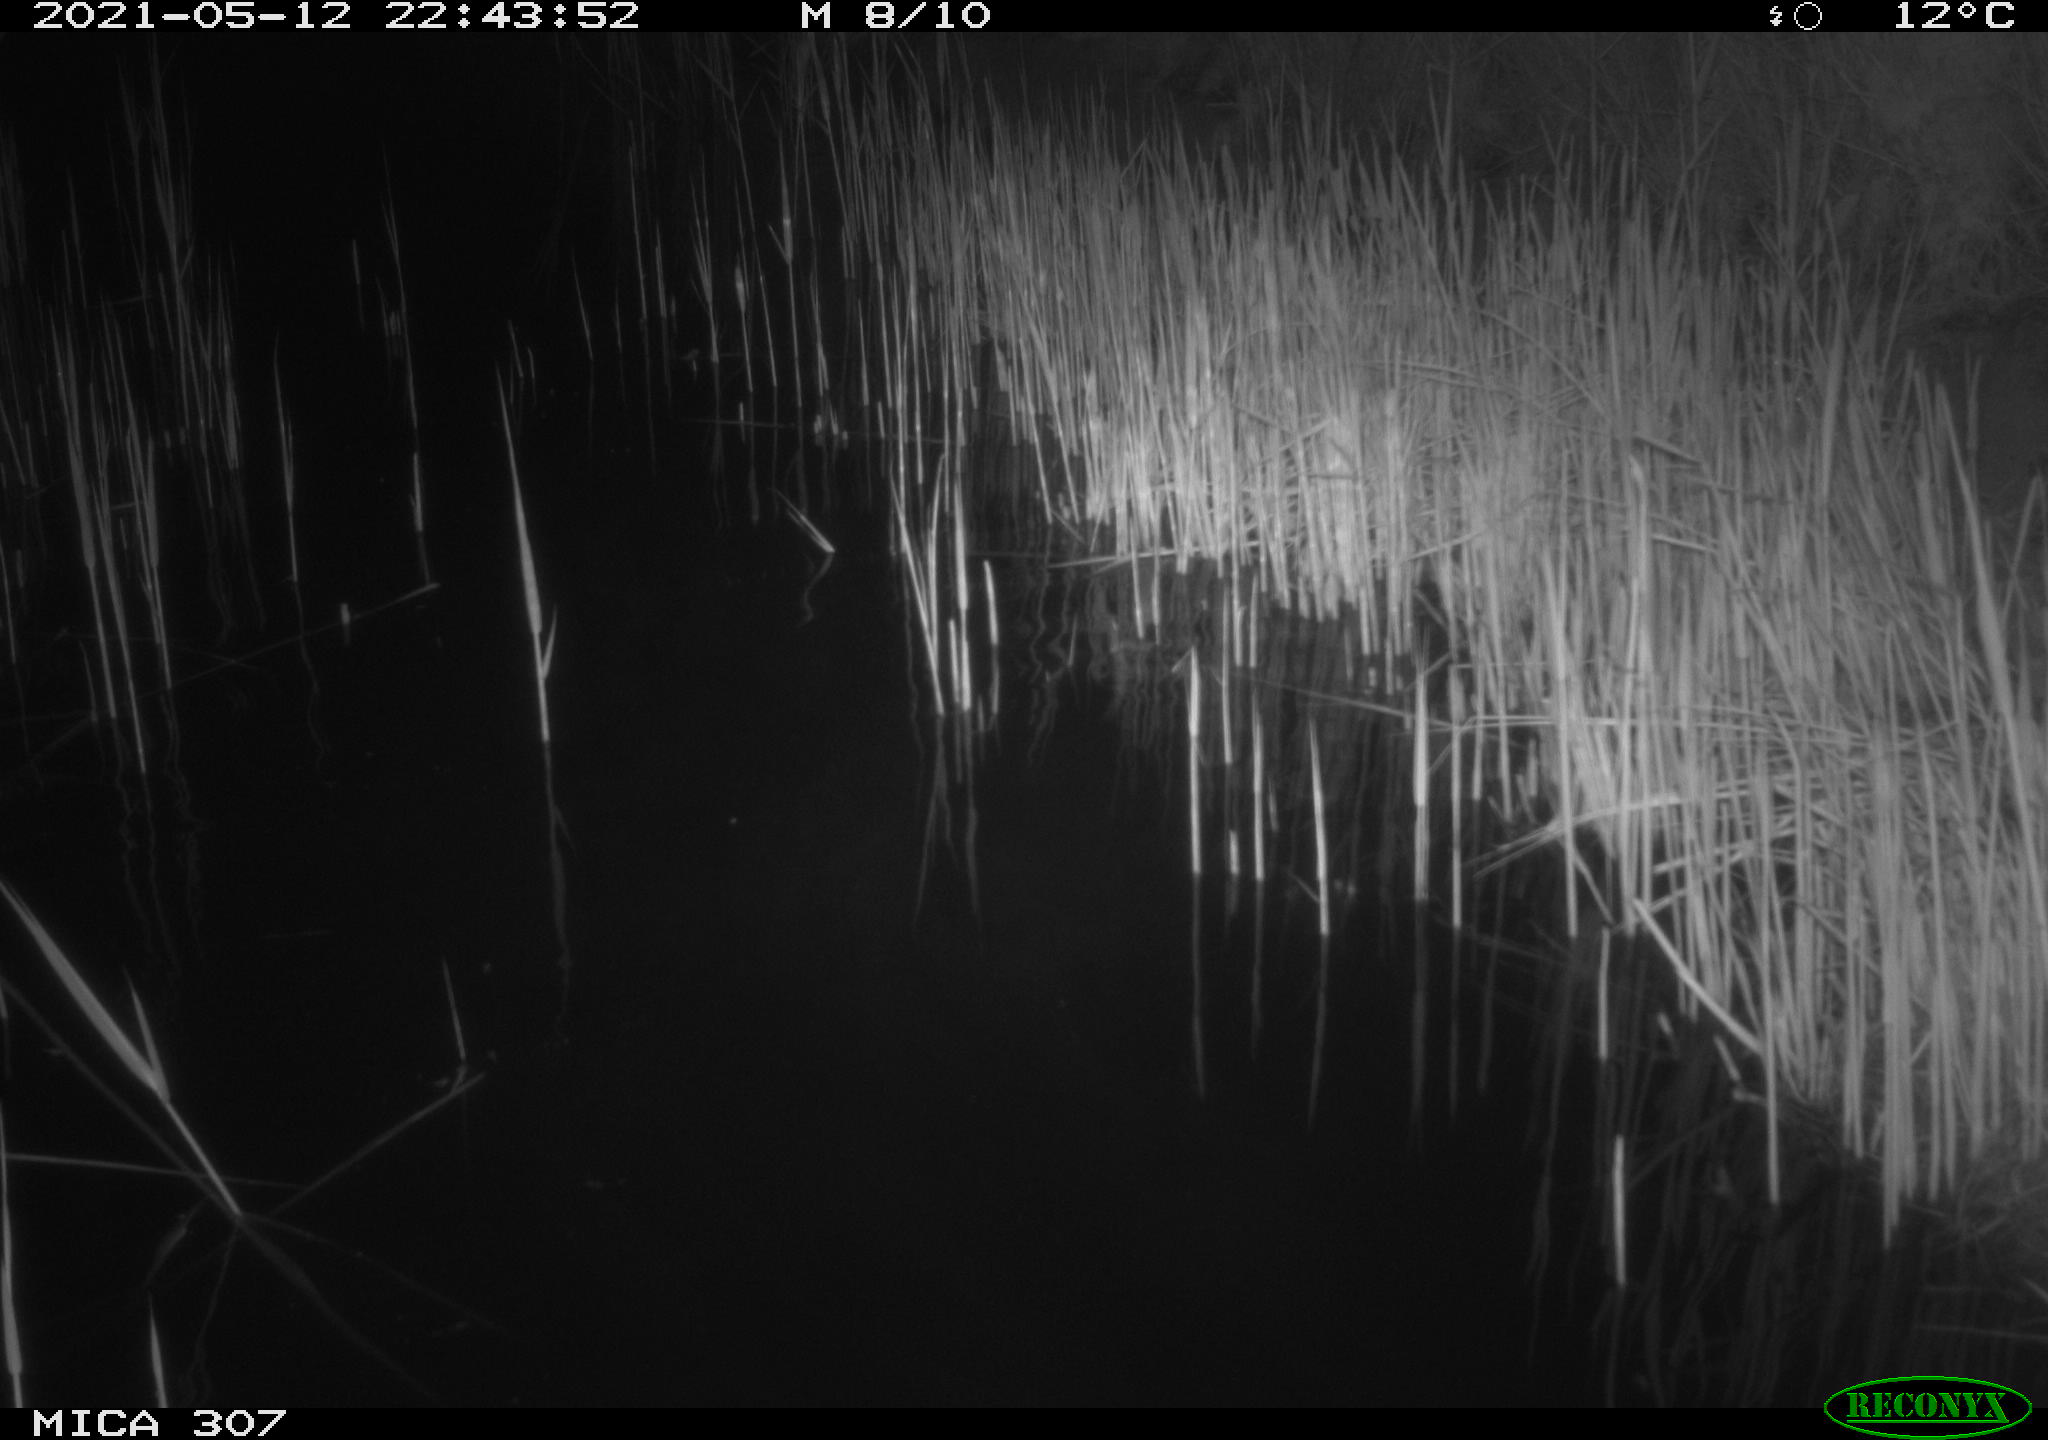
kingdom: Animalia
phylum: Chordata
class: Mammalia
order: Rodentia
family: Muridae
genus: Rattus
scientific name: Rattus norvegicus
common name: Brown rat
